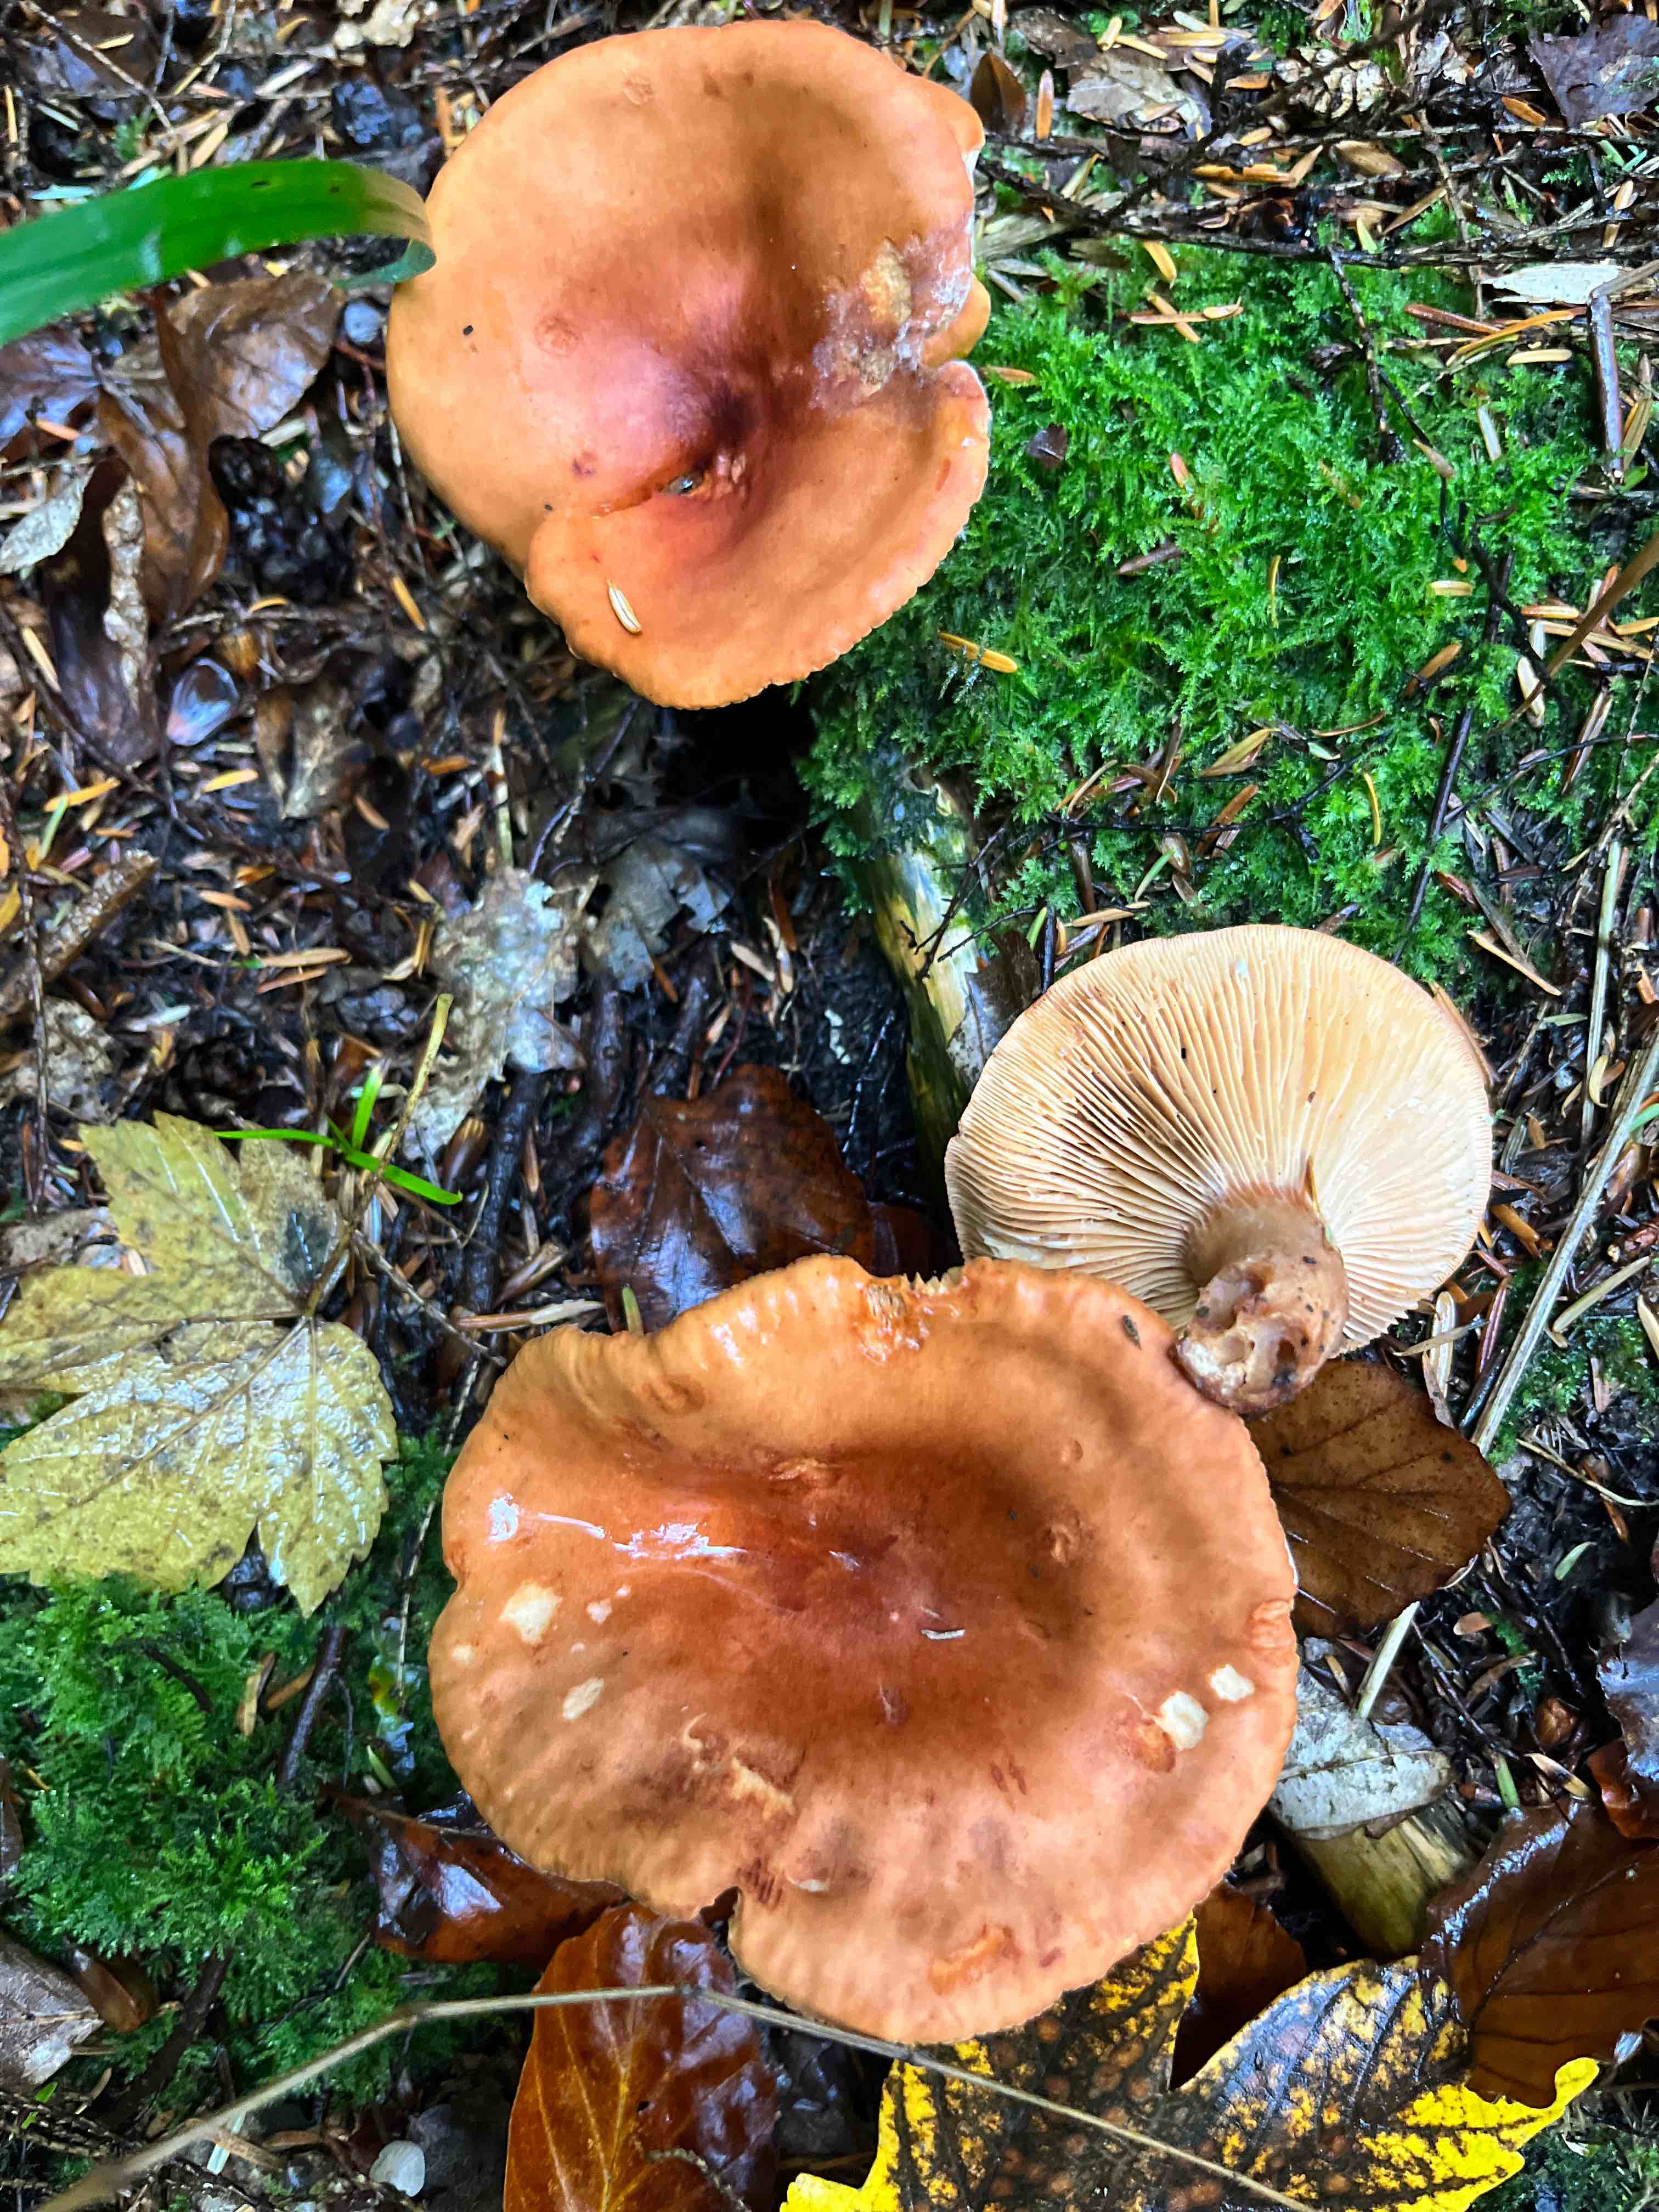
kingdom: Fungi
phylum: Basidiomycota
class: Agaricomycetes
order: Russulales
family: Russulaceae
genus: Lactarius
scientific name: Lactarius fulvissimus
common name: ræve-mælkehat
